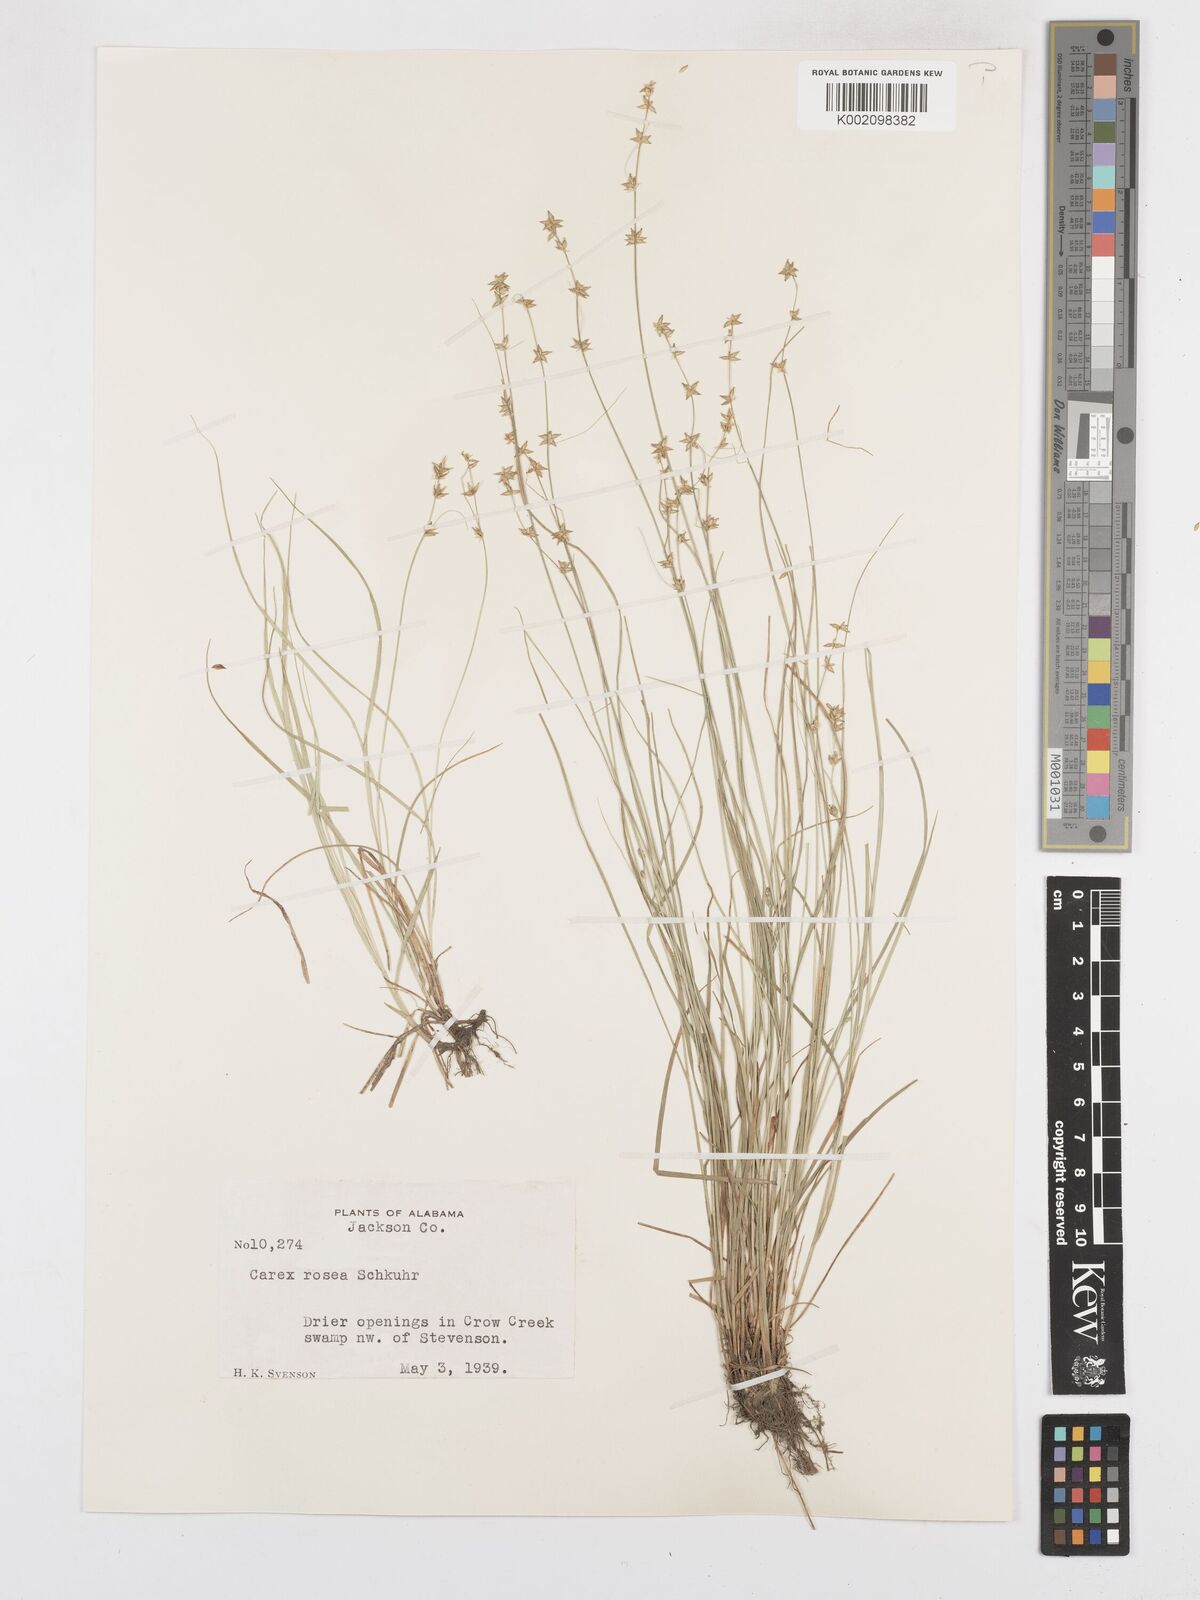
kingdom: Plantae
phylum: Tracheophyta
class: Liliopsida
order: Poales
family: Cyperaceae
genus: Carex
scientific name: Carex rosea
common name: Curly-styled wood sedge
